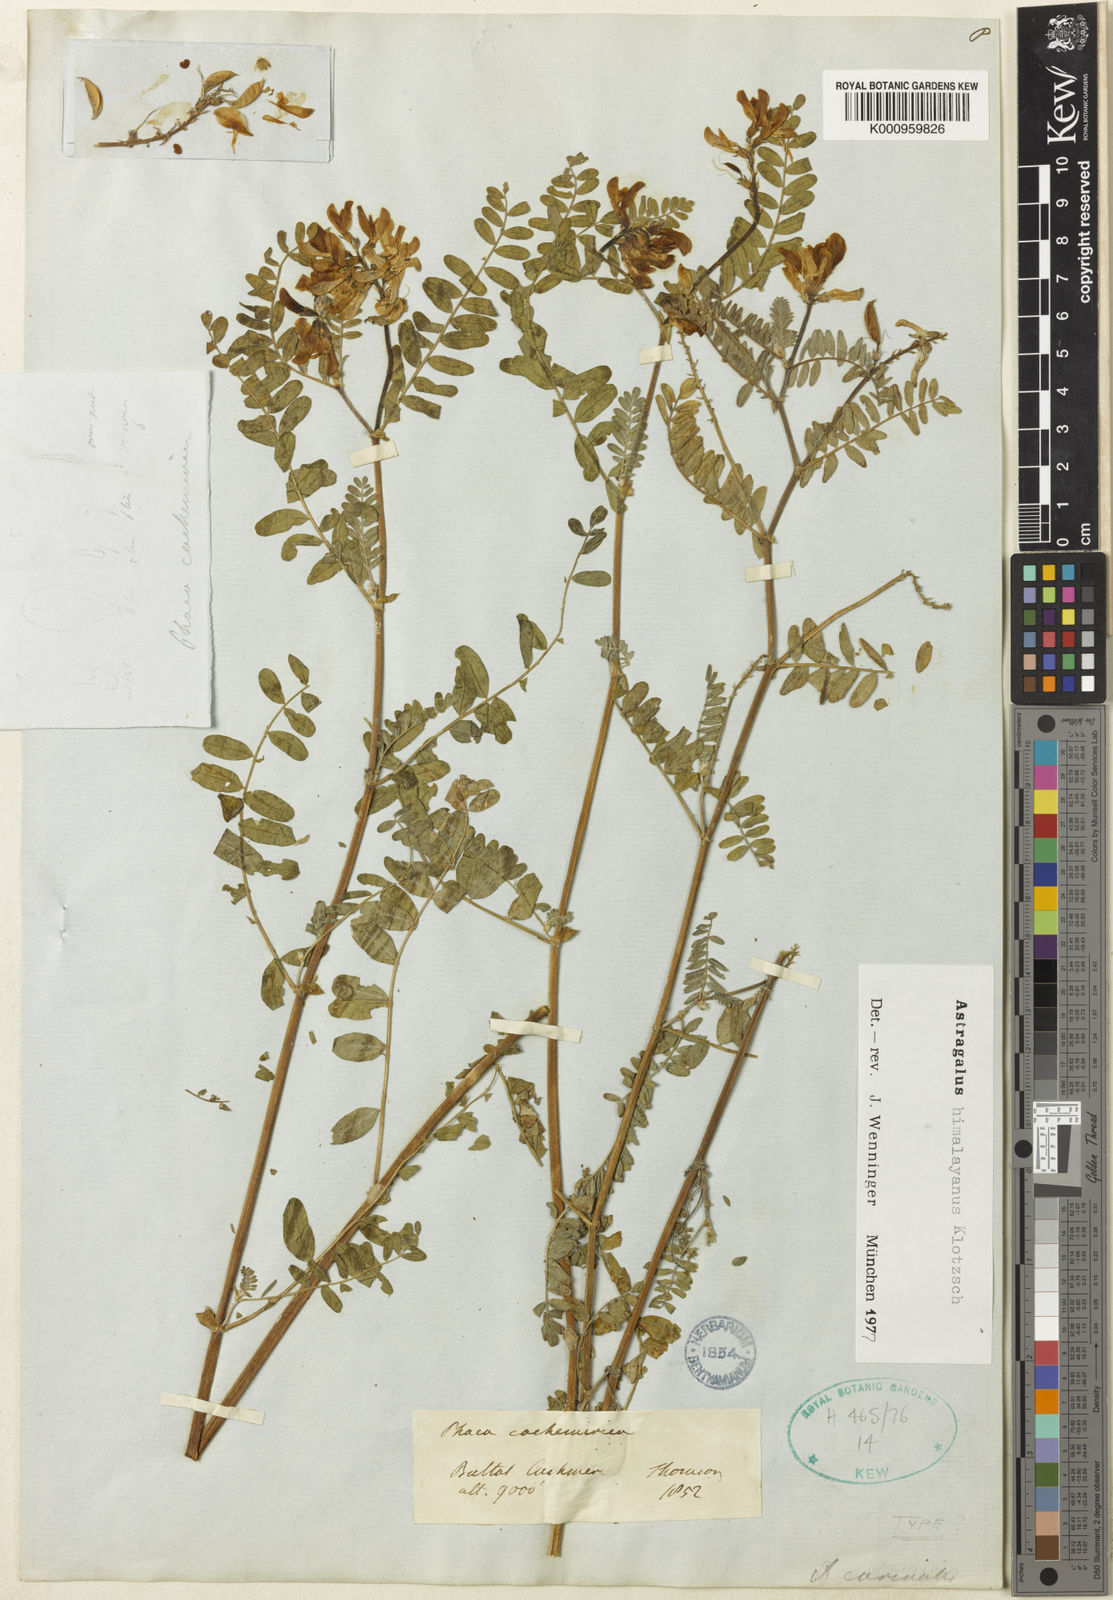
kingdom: Plantae
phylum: Tracheophyta
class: Magnoliopsida
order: Fabales
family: Fabaceae
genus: Astragalus
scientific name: Astragalus
